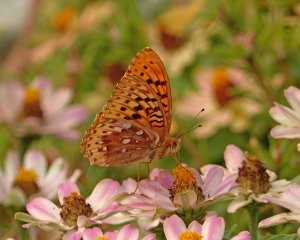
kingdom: Animalia
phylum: Arthropoda
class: Insecta
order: Lepidoptera
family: Nymphalidae
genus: Speyeria
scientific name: Speyeria cybele
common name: Great Spangled Fritillary
